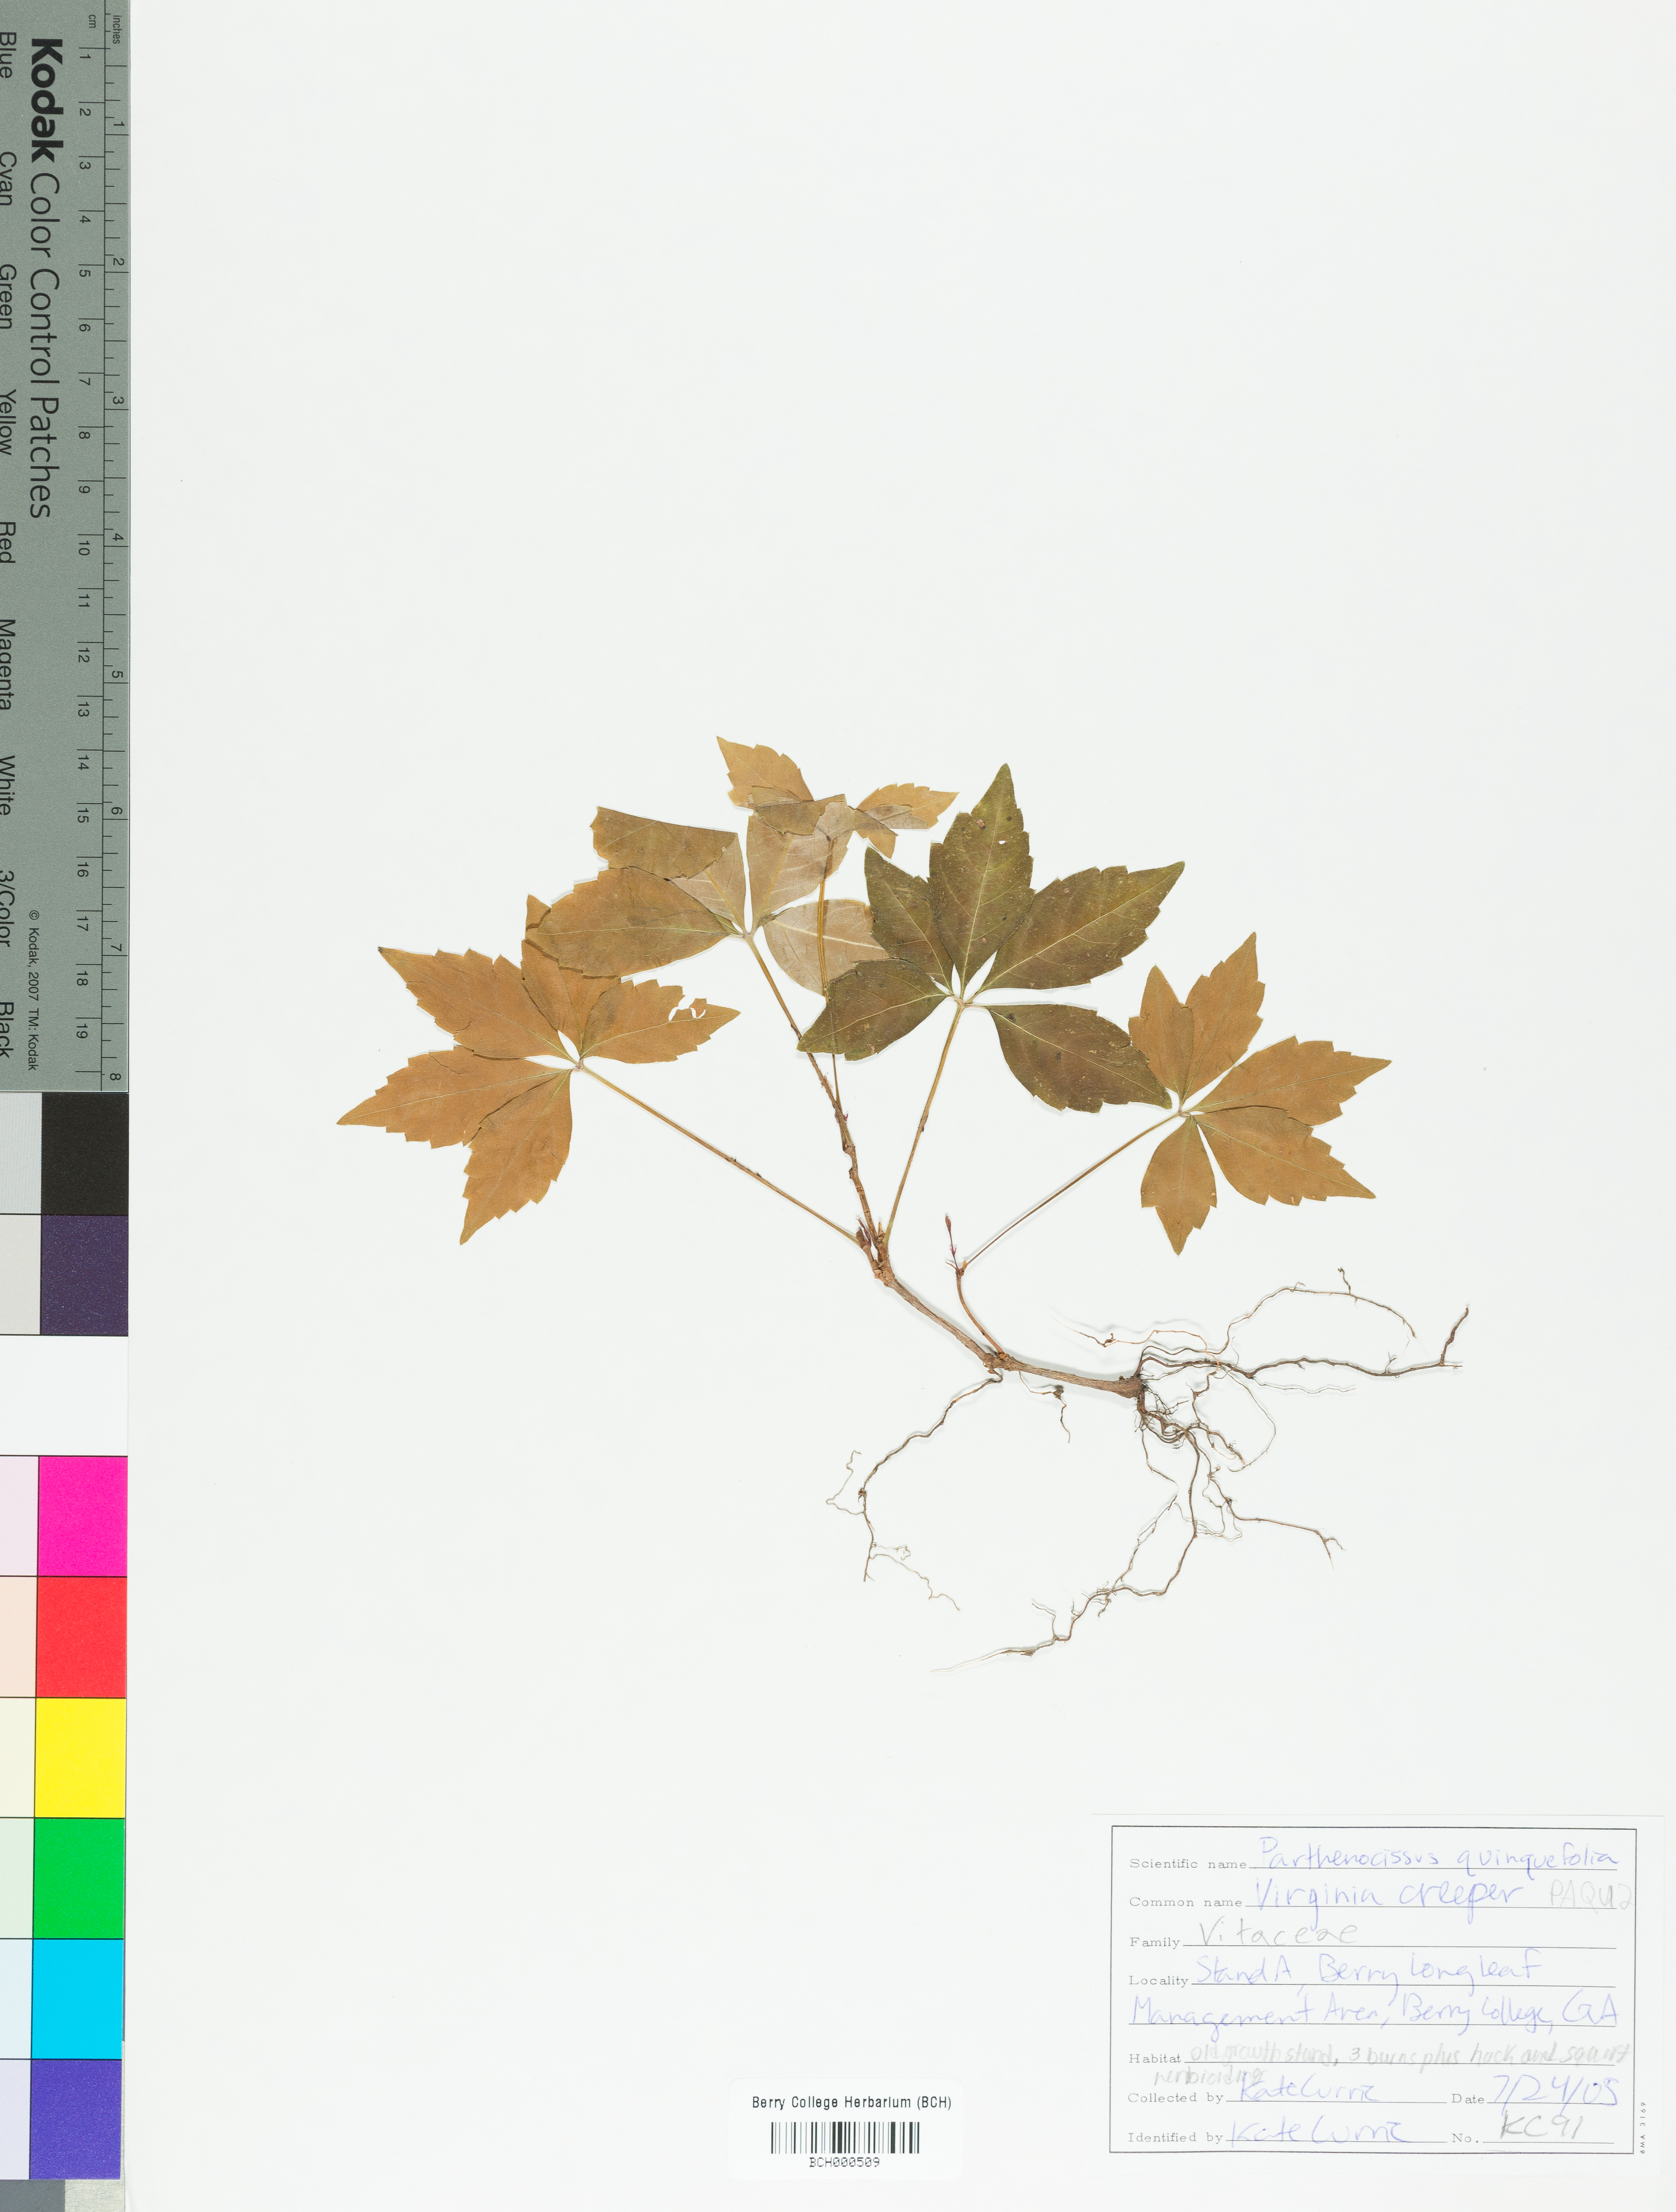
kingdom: Plantae
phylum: Tracheophyta
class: Magnoliopsida
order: Vitales
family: Vitaceae
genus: Parthenocissus
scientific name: Parthenocissus quinquefolia
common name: Virginia-creeper
